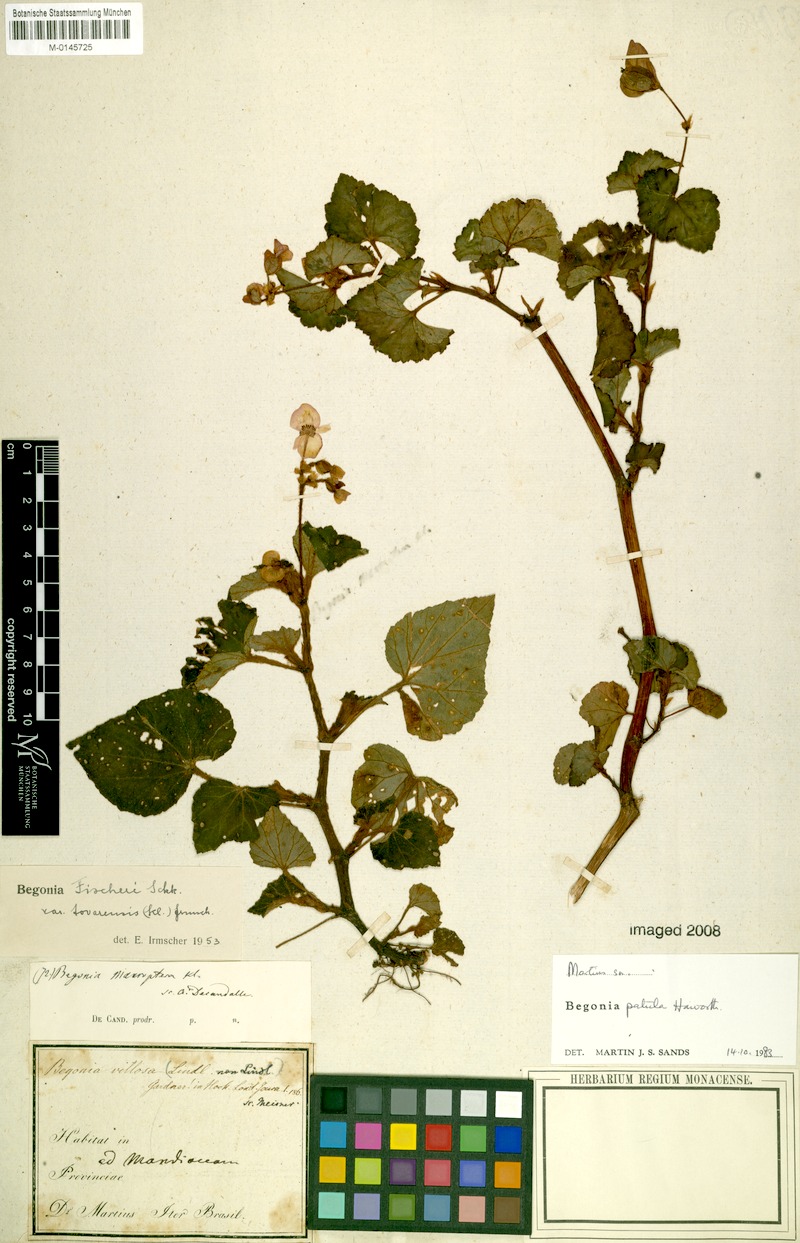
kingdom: Plantae
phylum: Tracheophyta
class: Magnoliopsida
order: Cucurbitales
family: Begoniaceae
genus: Begonia
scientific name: Begonia fischeri
